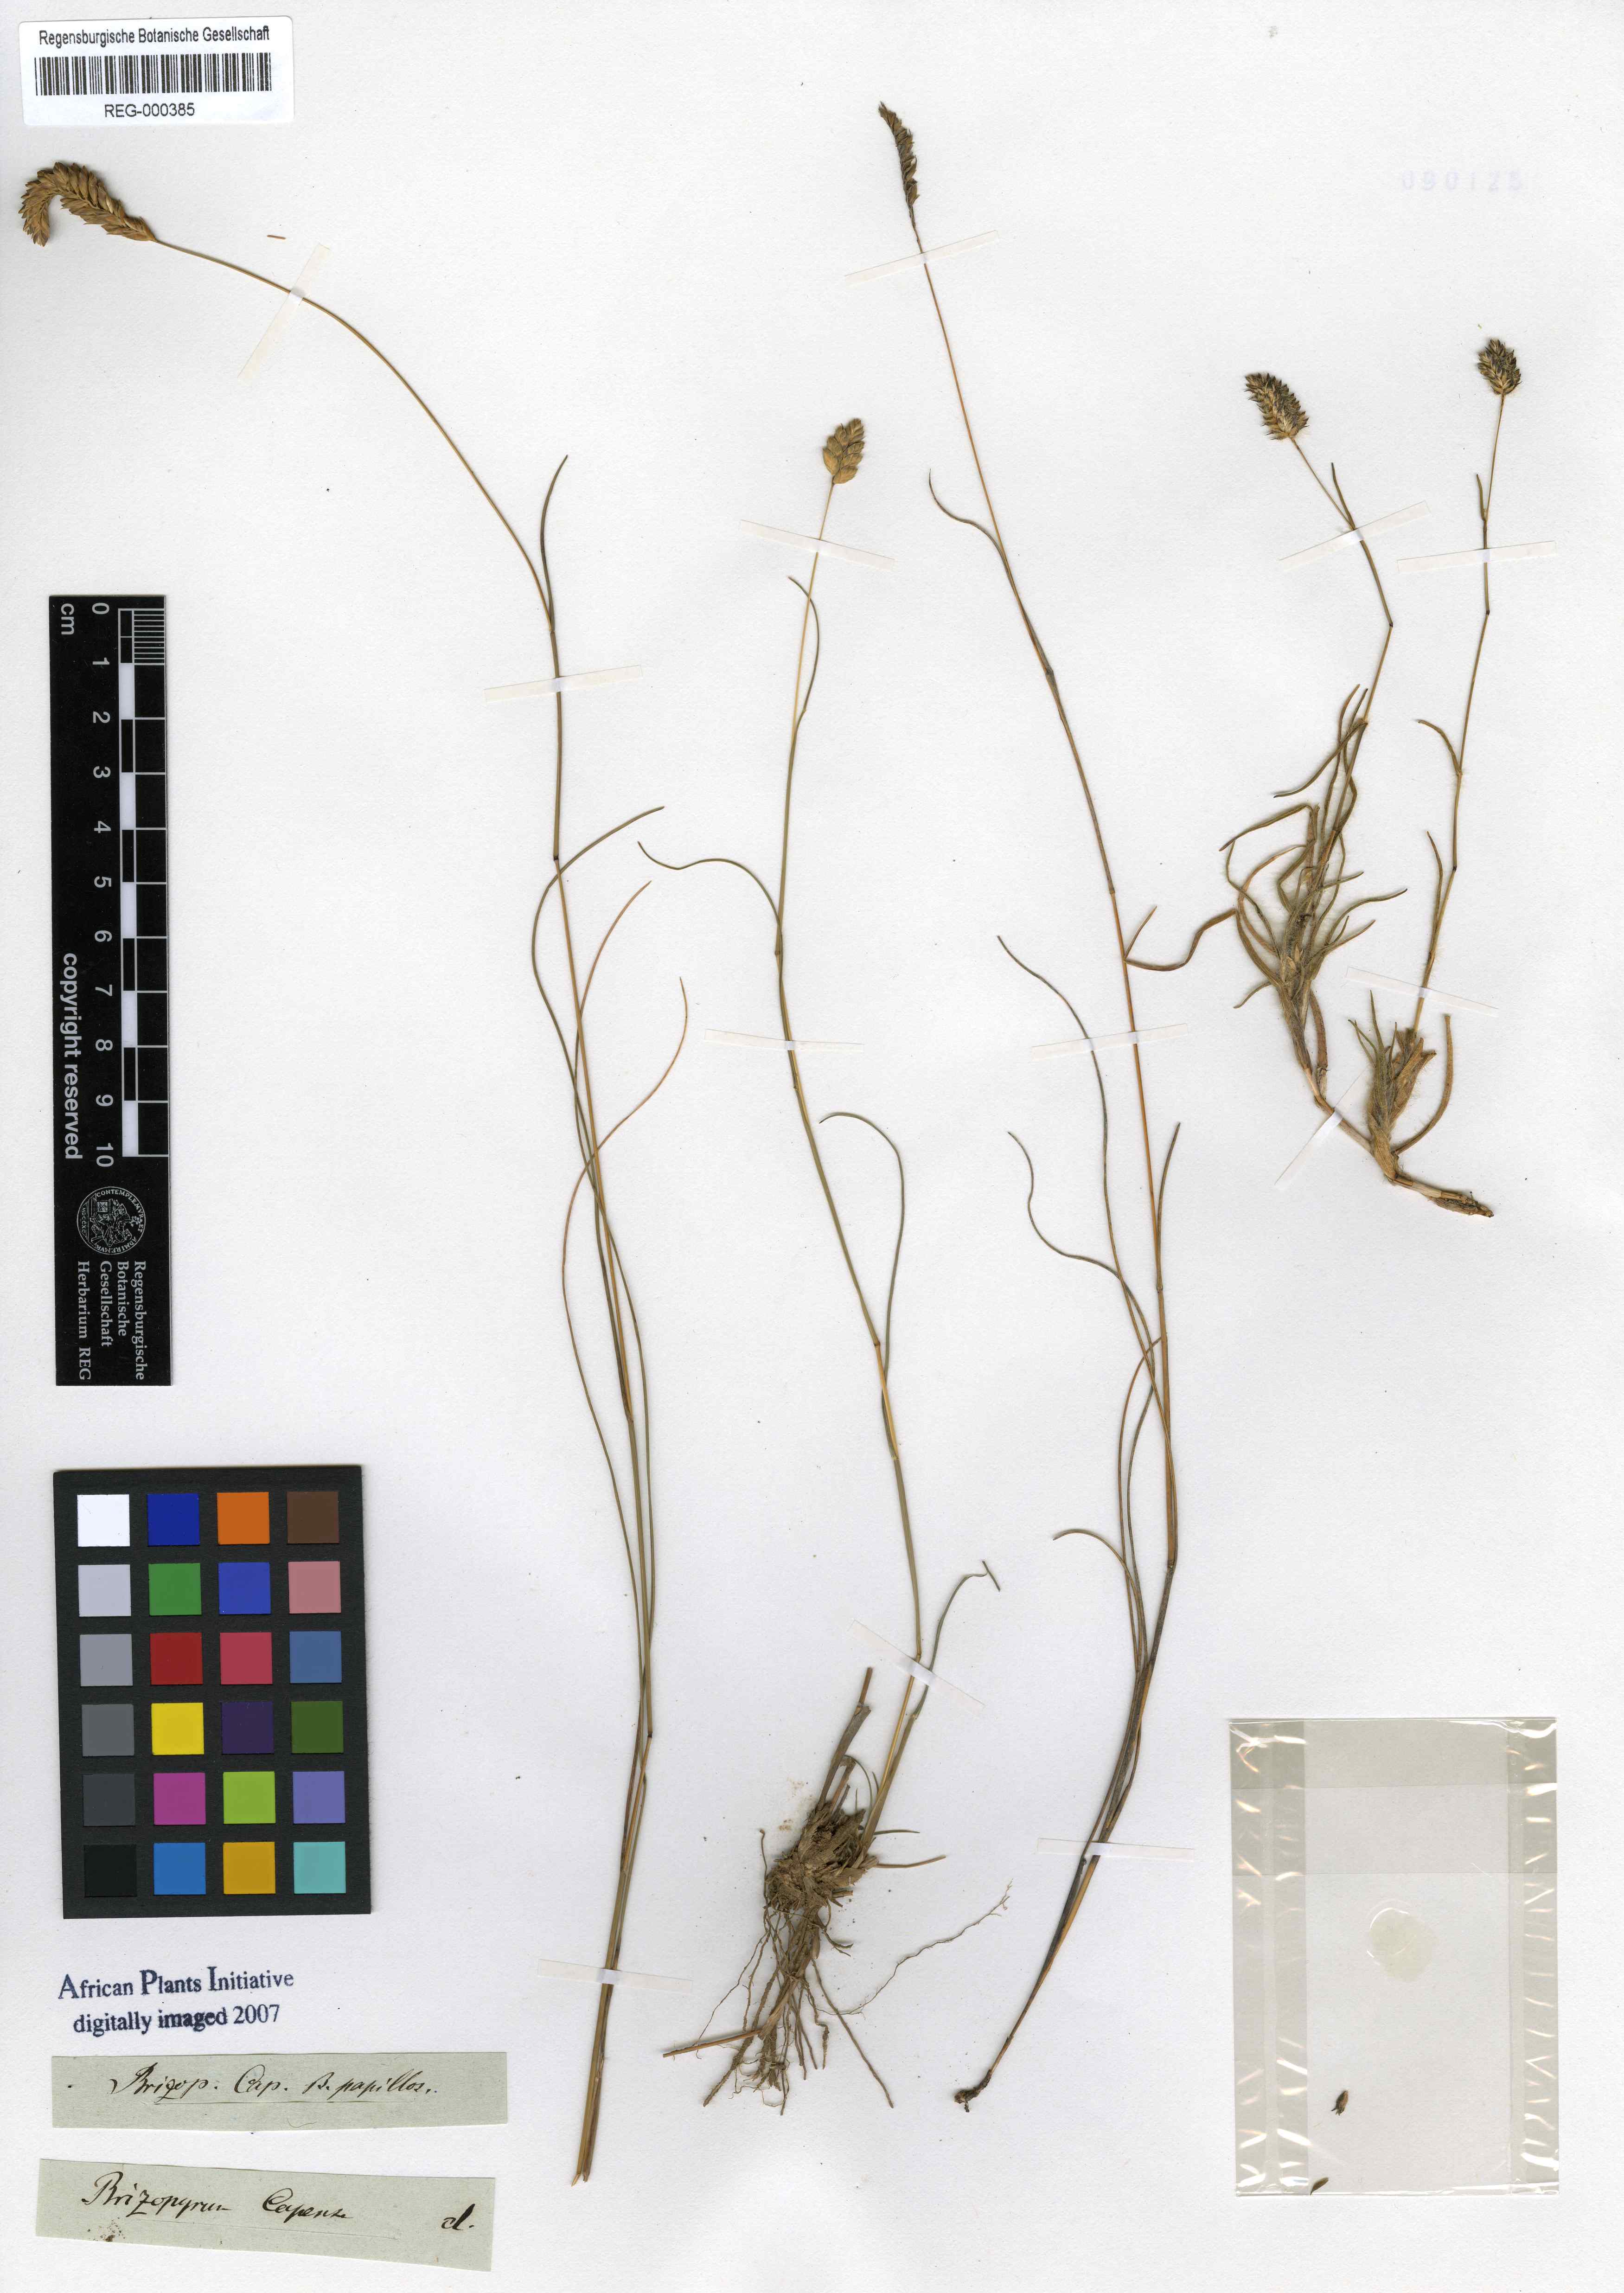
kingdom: Plantae
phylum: Tracheophyta
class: Liliopsida
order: Poales
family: Poaceae
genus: Tribolium
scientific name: Tribolium brachystachyum
